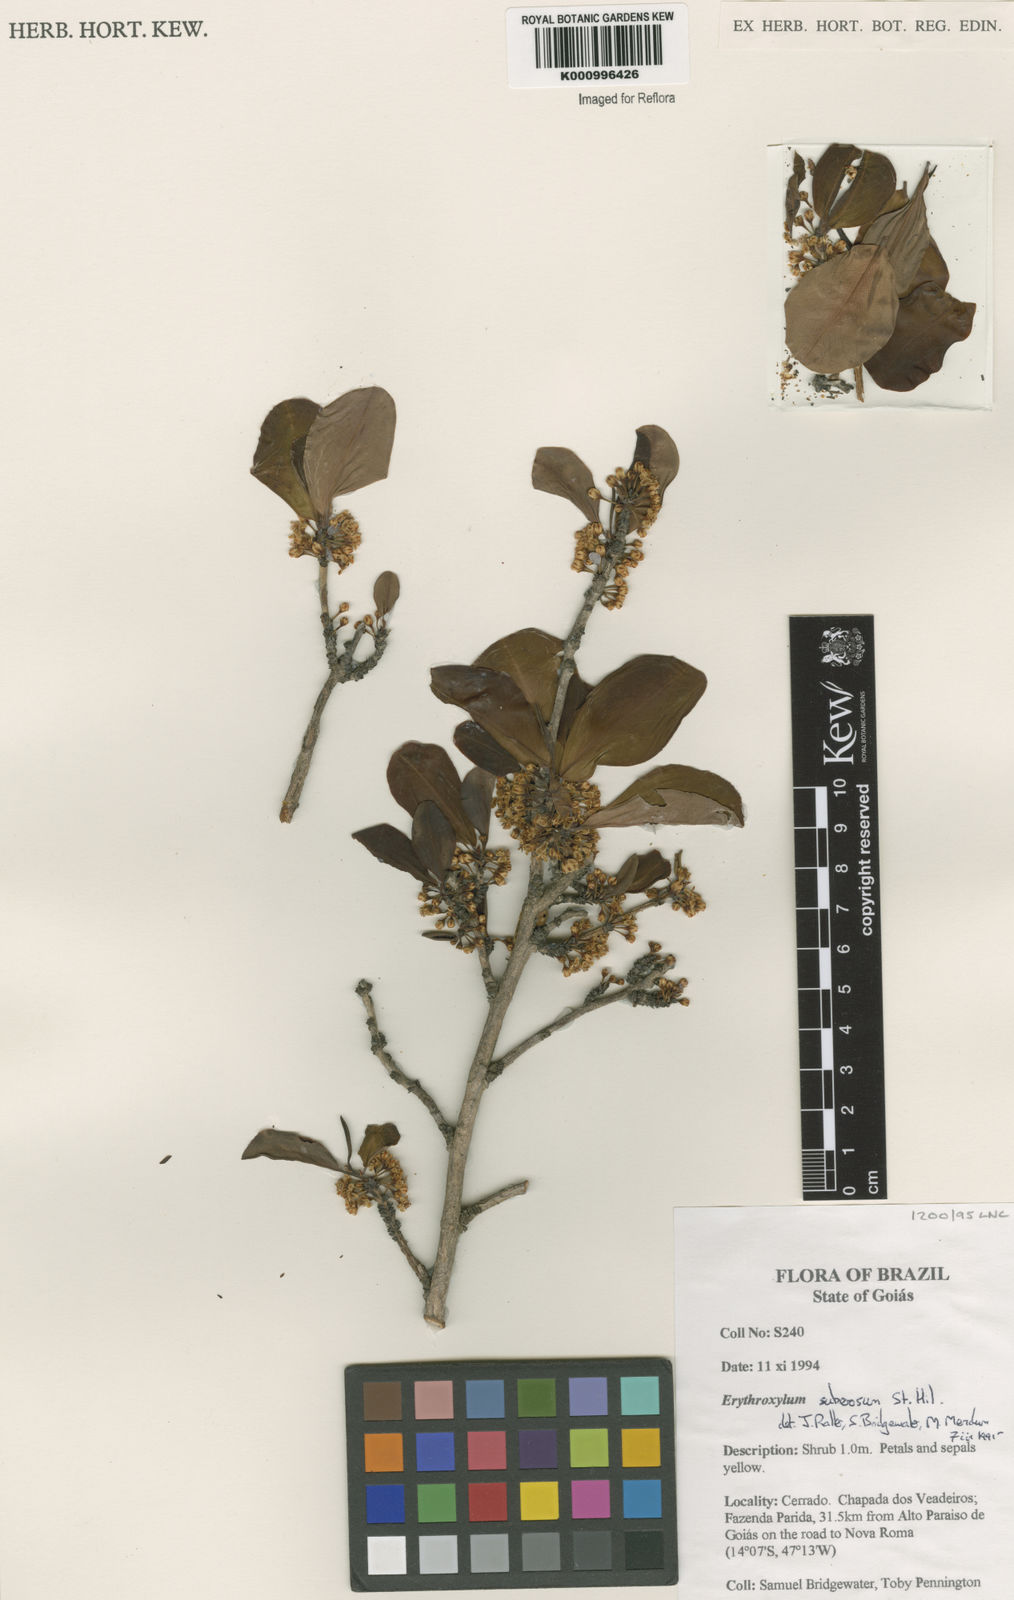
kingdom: Plantae
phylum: Tracheophyta
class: Magnoliopsida
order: Malpighiales
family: Erythroxylaceae
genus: Erythroxylum
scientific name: Erythroxylum suberosum
